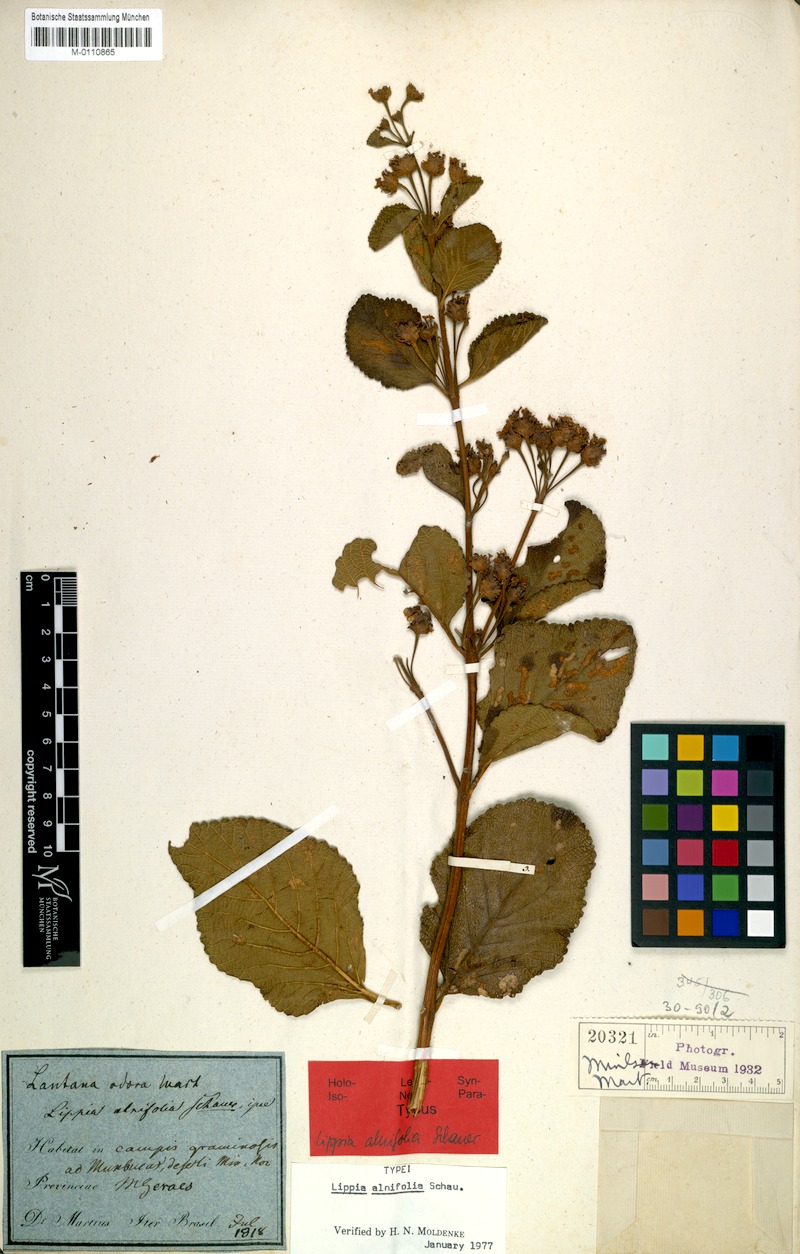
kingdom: Plantae
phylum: Tracheophyta
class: Magnoliopsida
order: Lamiales
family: Verbenaceae
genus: Lippia
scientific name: Lippia alnifolia
